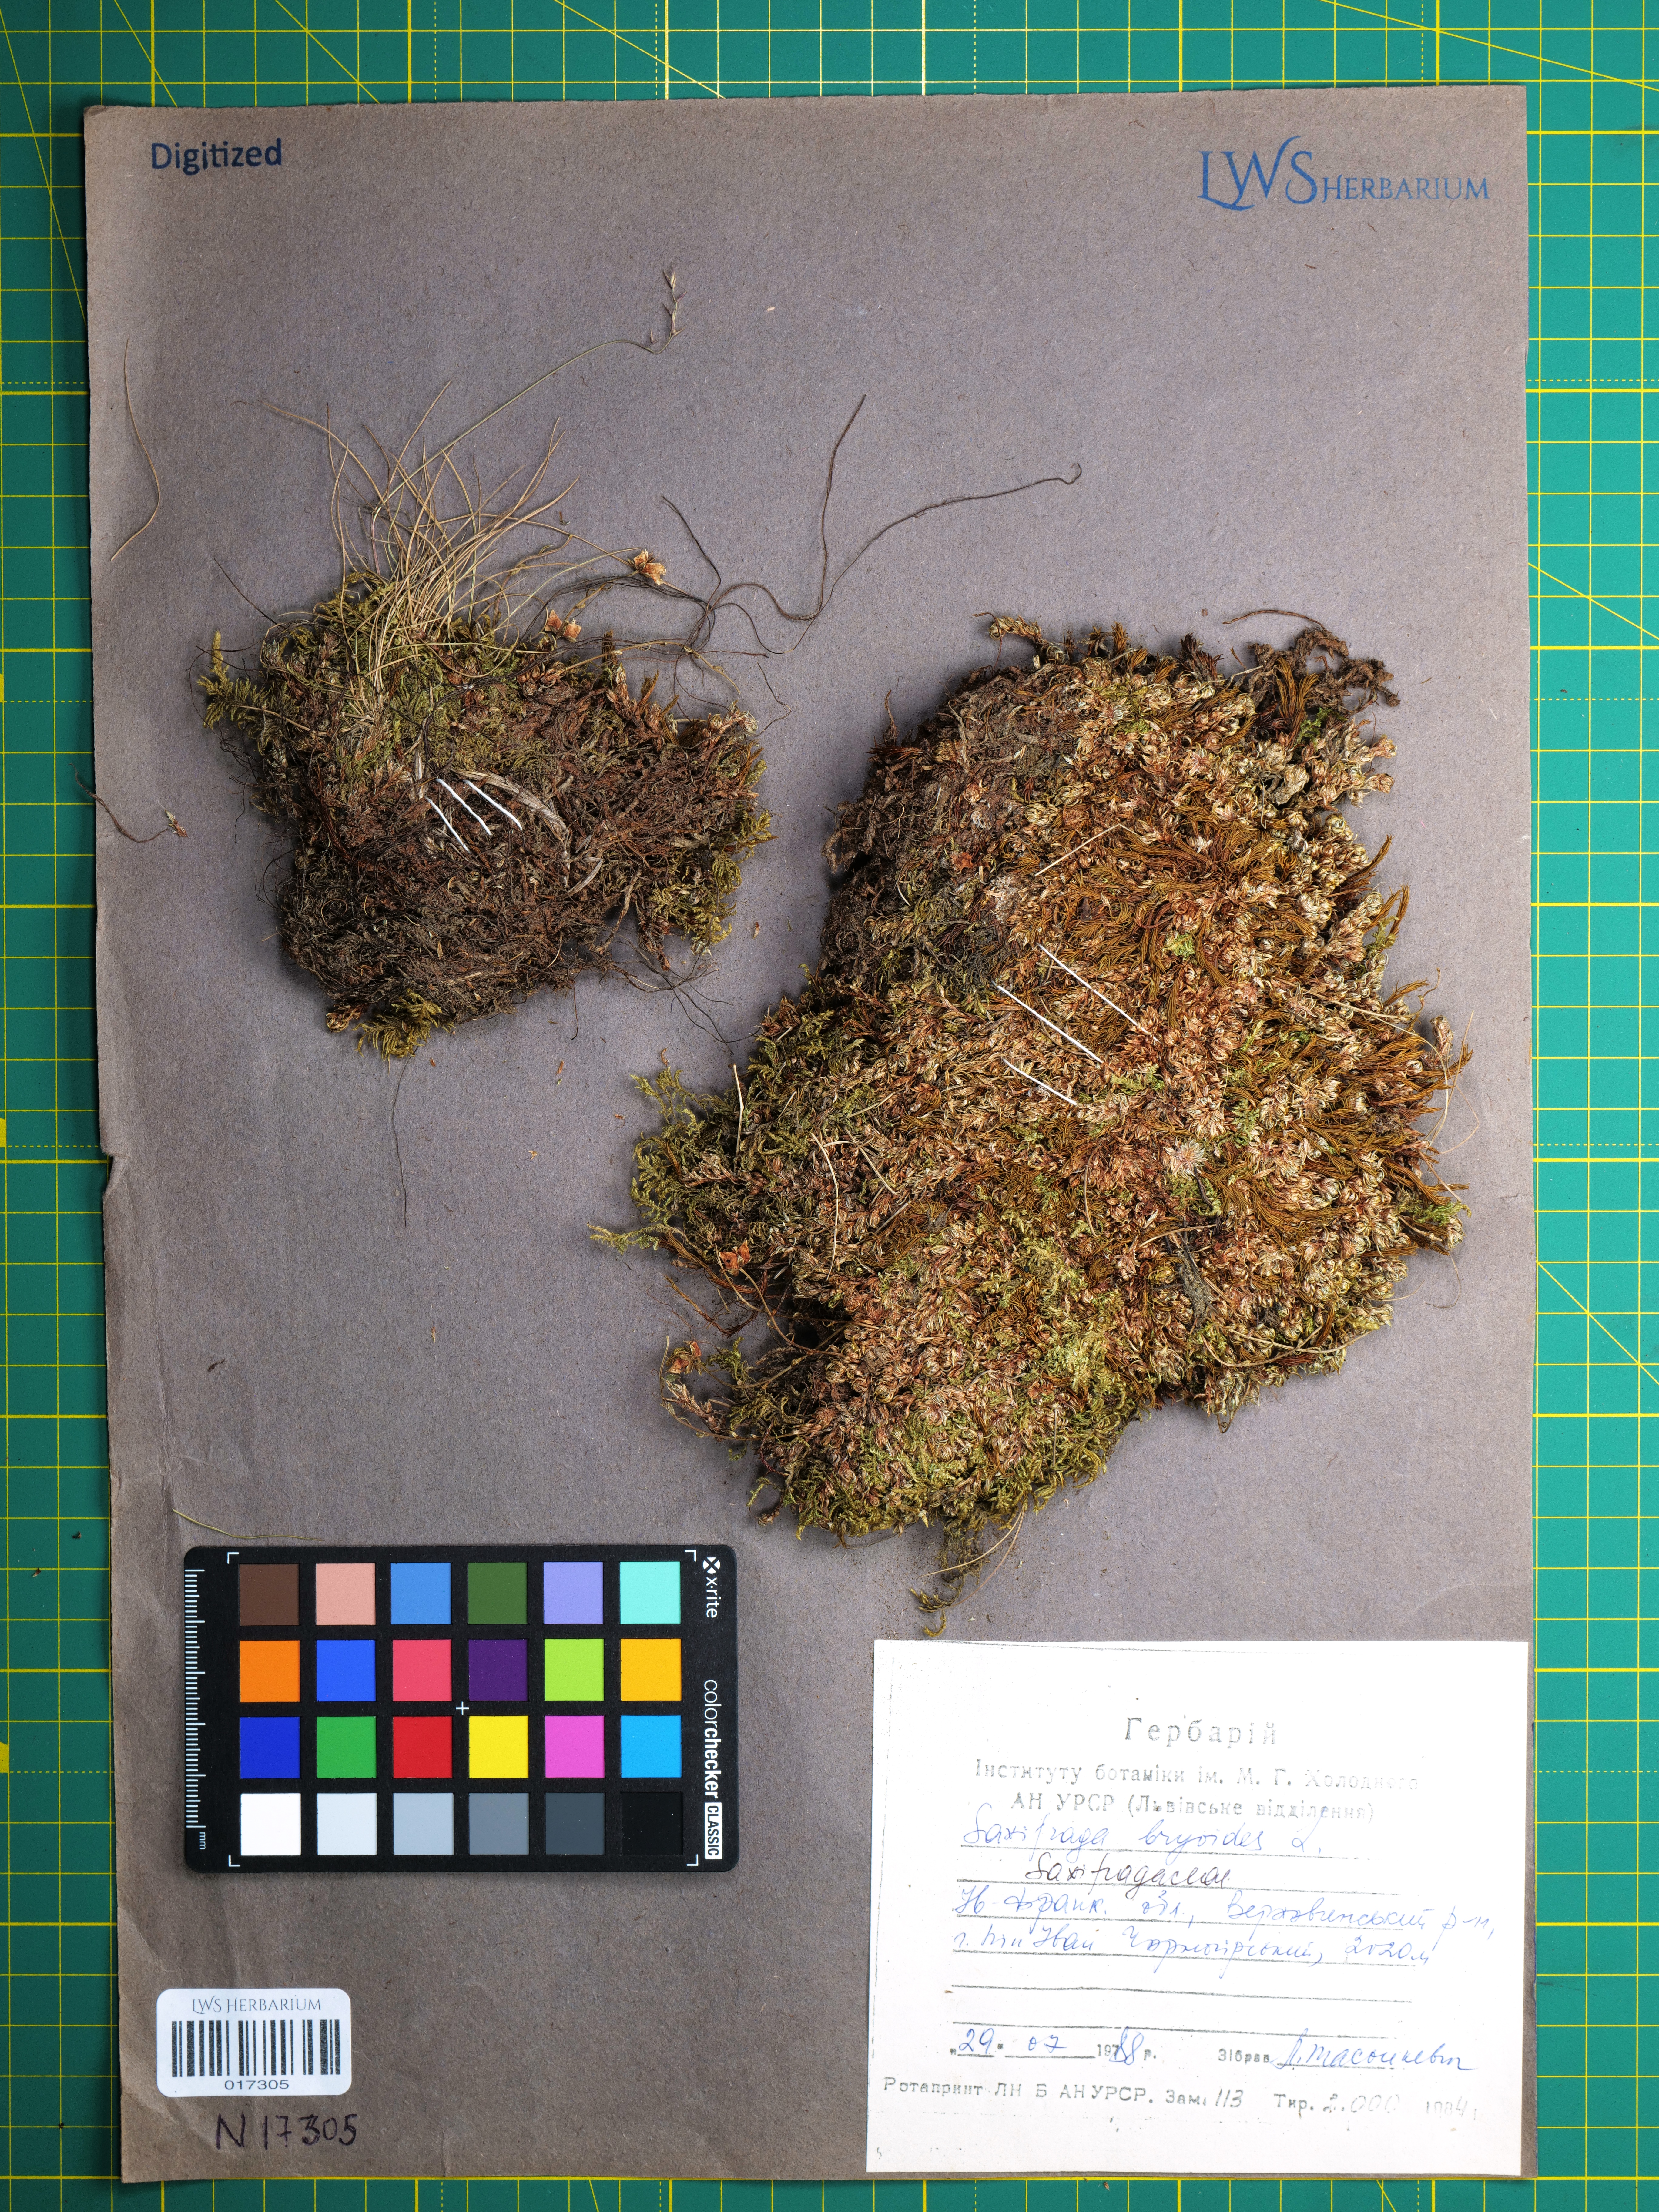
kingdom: Plantae
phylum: Tracheophyta
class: Magnoliopsida
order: Saxifragales
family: Saxifragaceae
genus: Saxifraga
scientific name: Saxifraga bryoides
